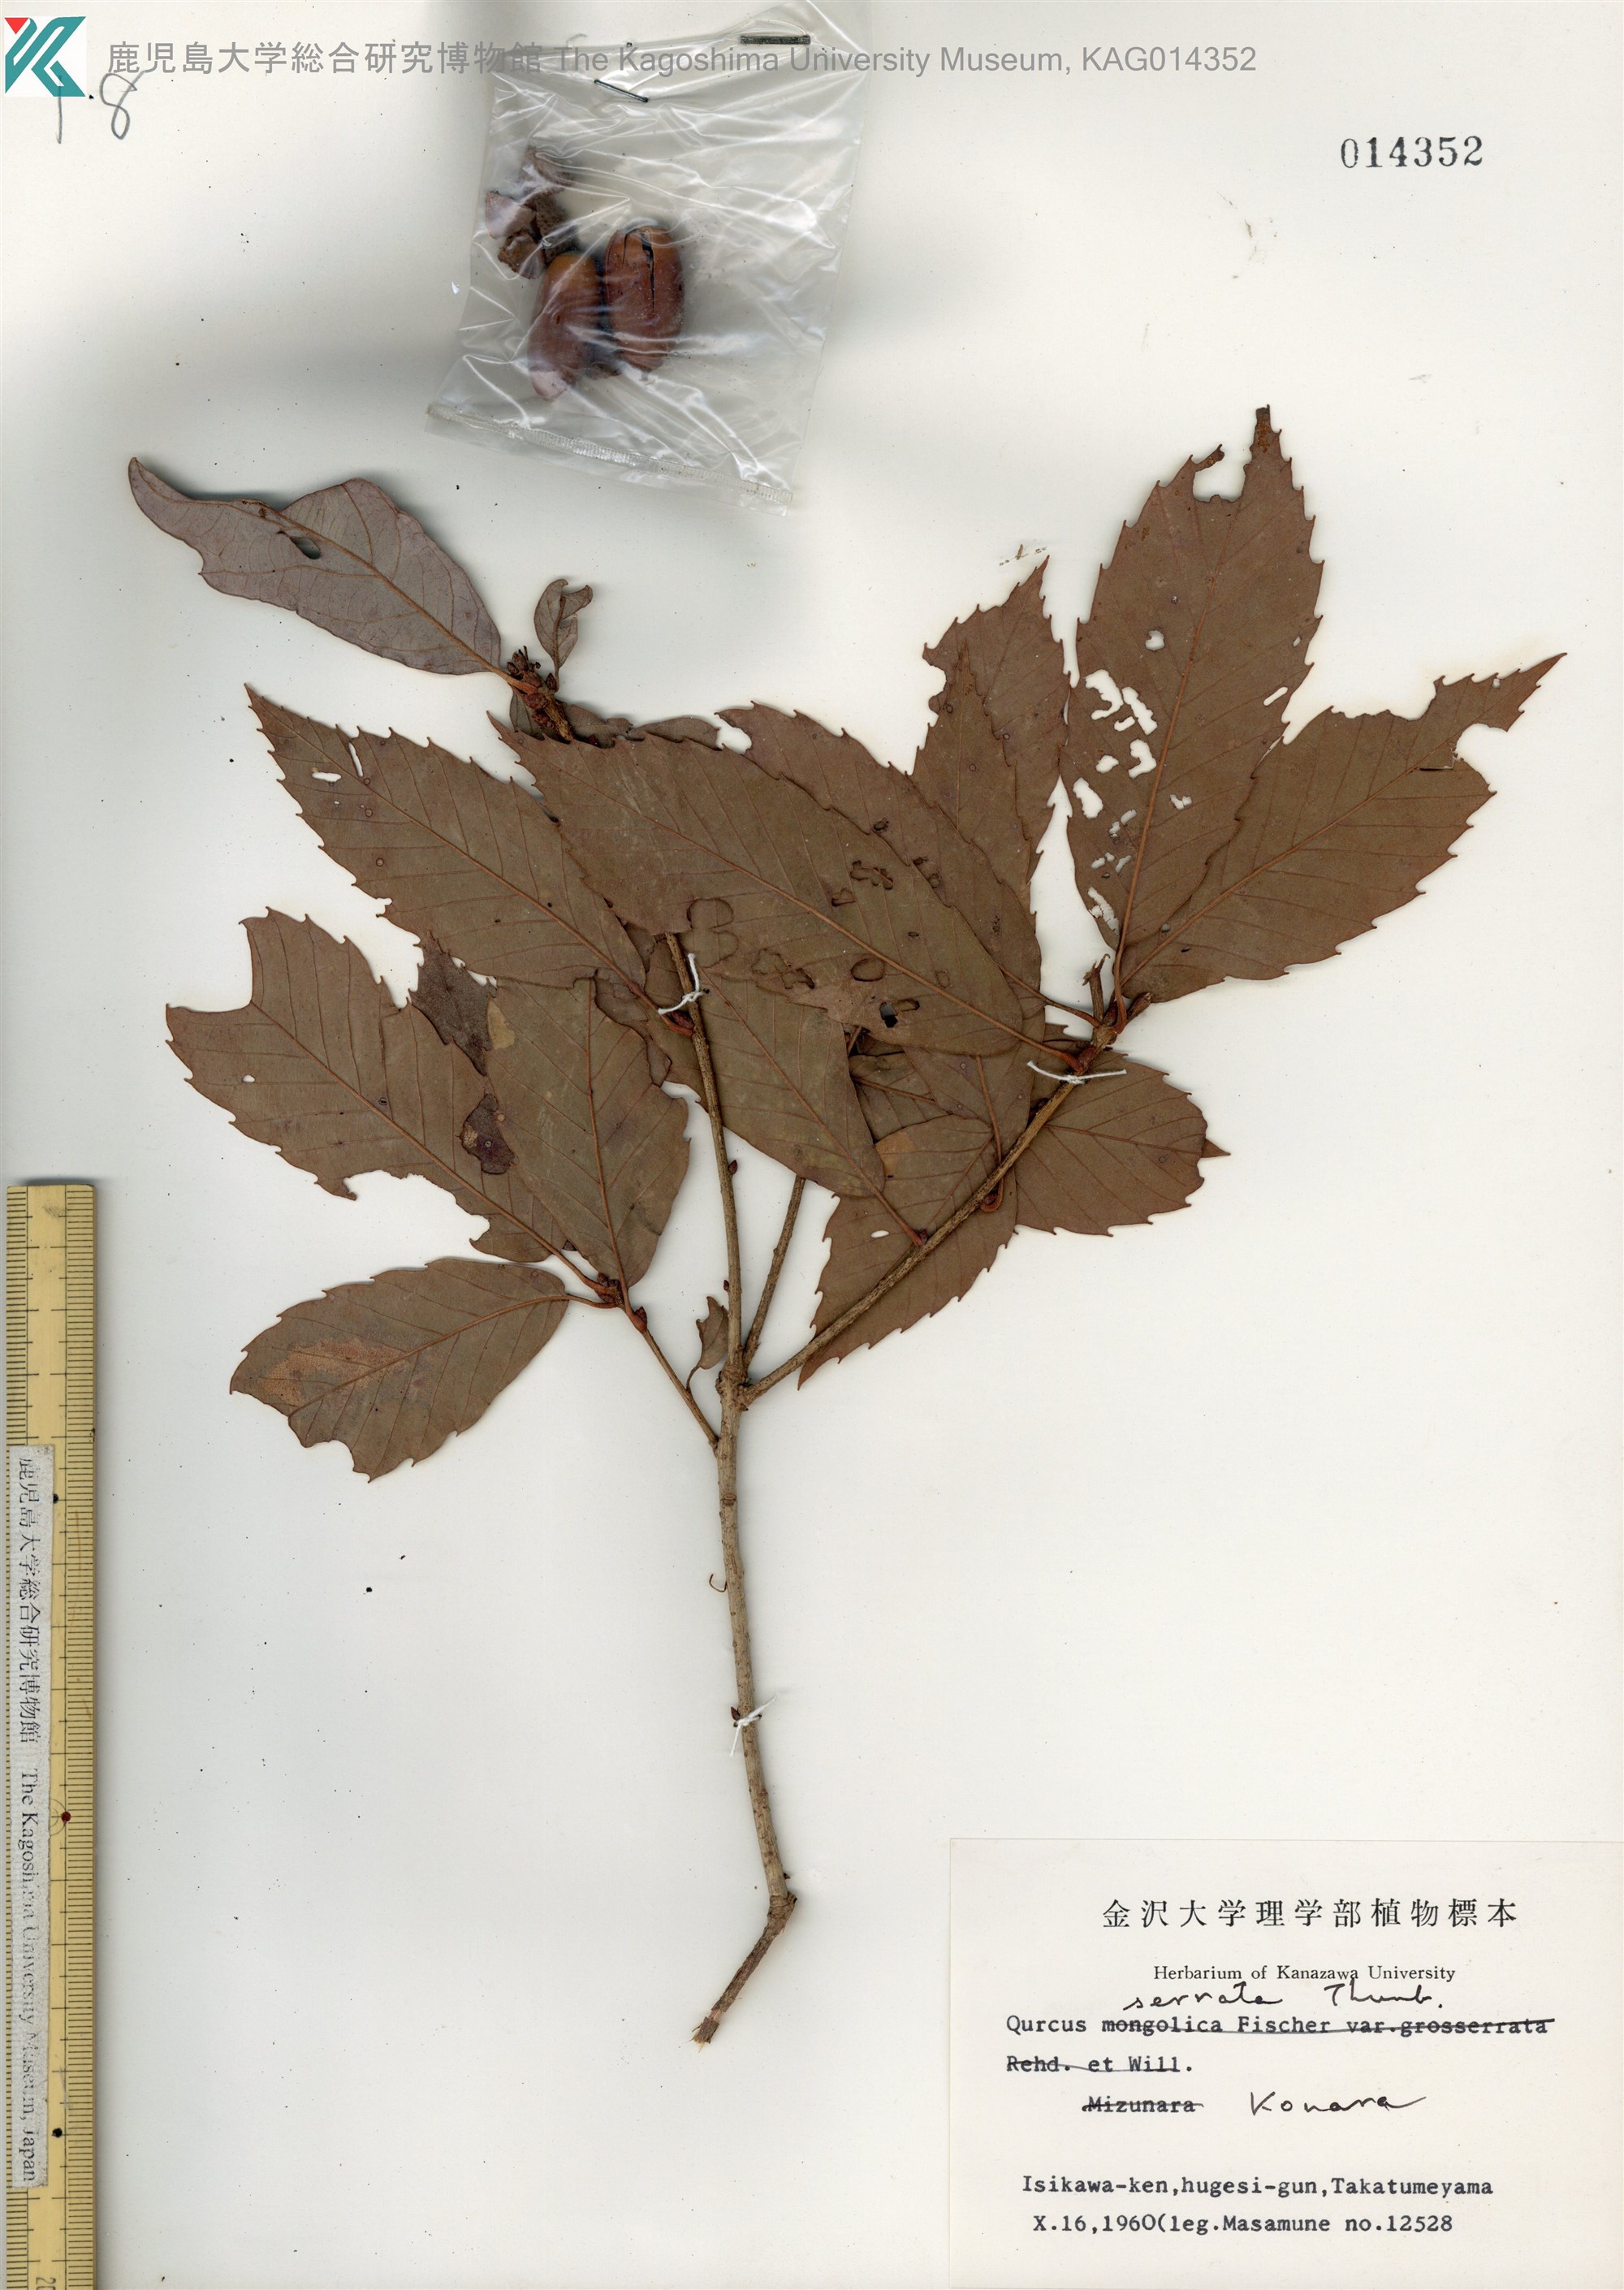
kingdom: Plantae
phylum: Tracheophyta
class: Magnoliopsida
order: Fagales
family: Fagaceae
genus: Quercus
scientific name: Quercus serrata
